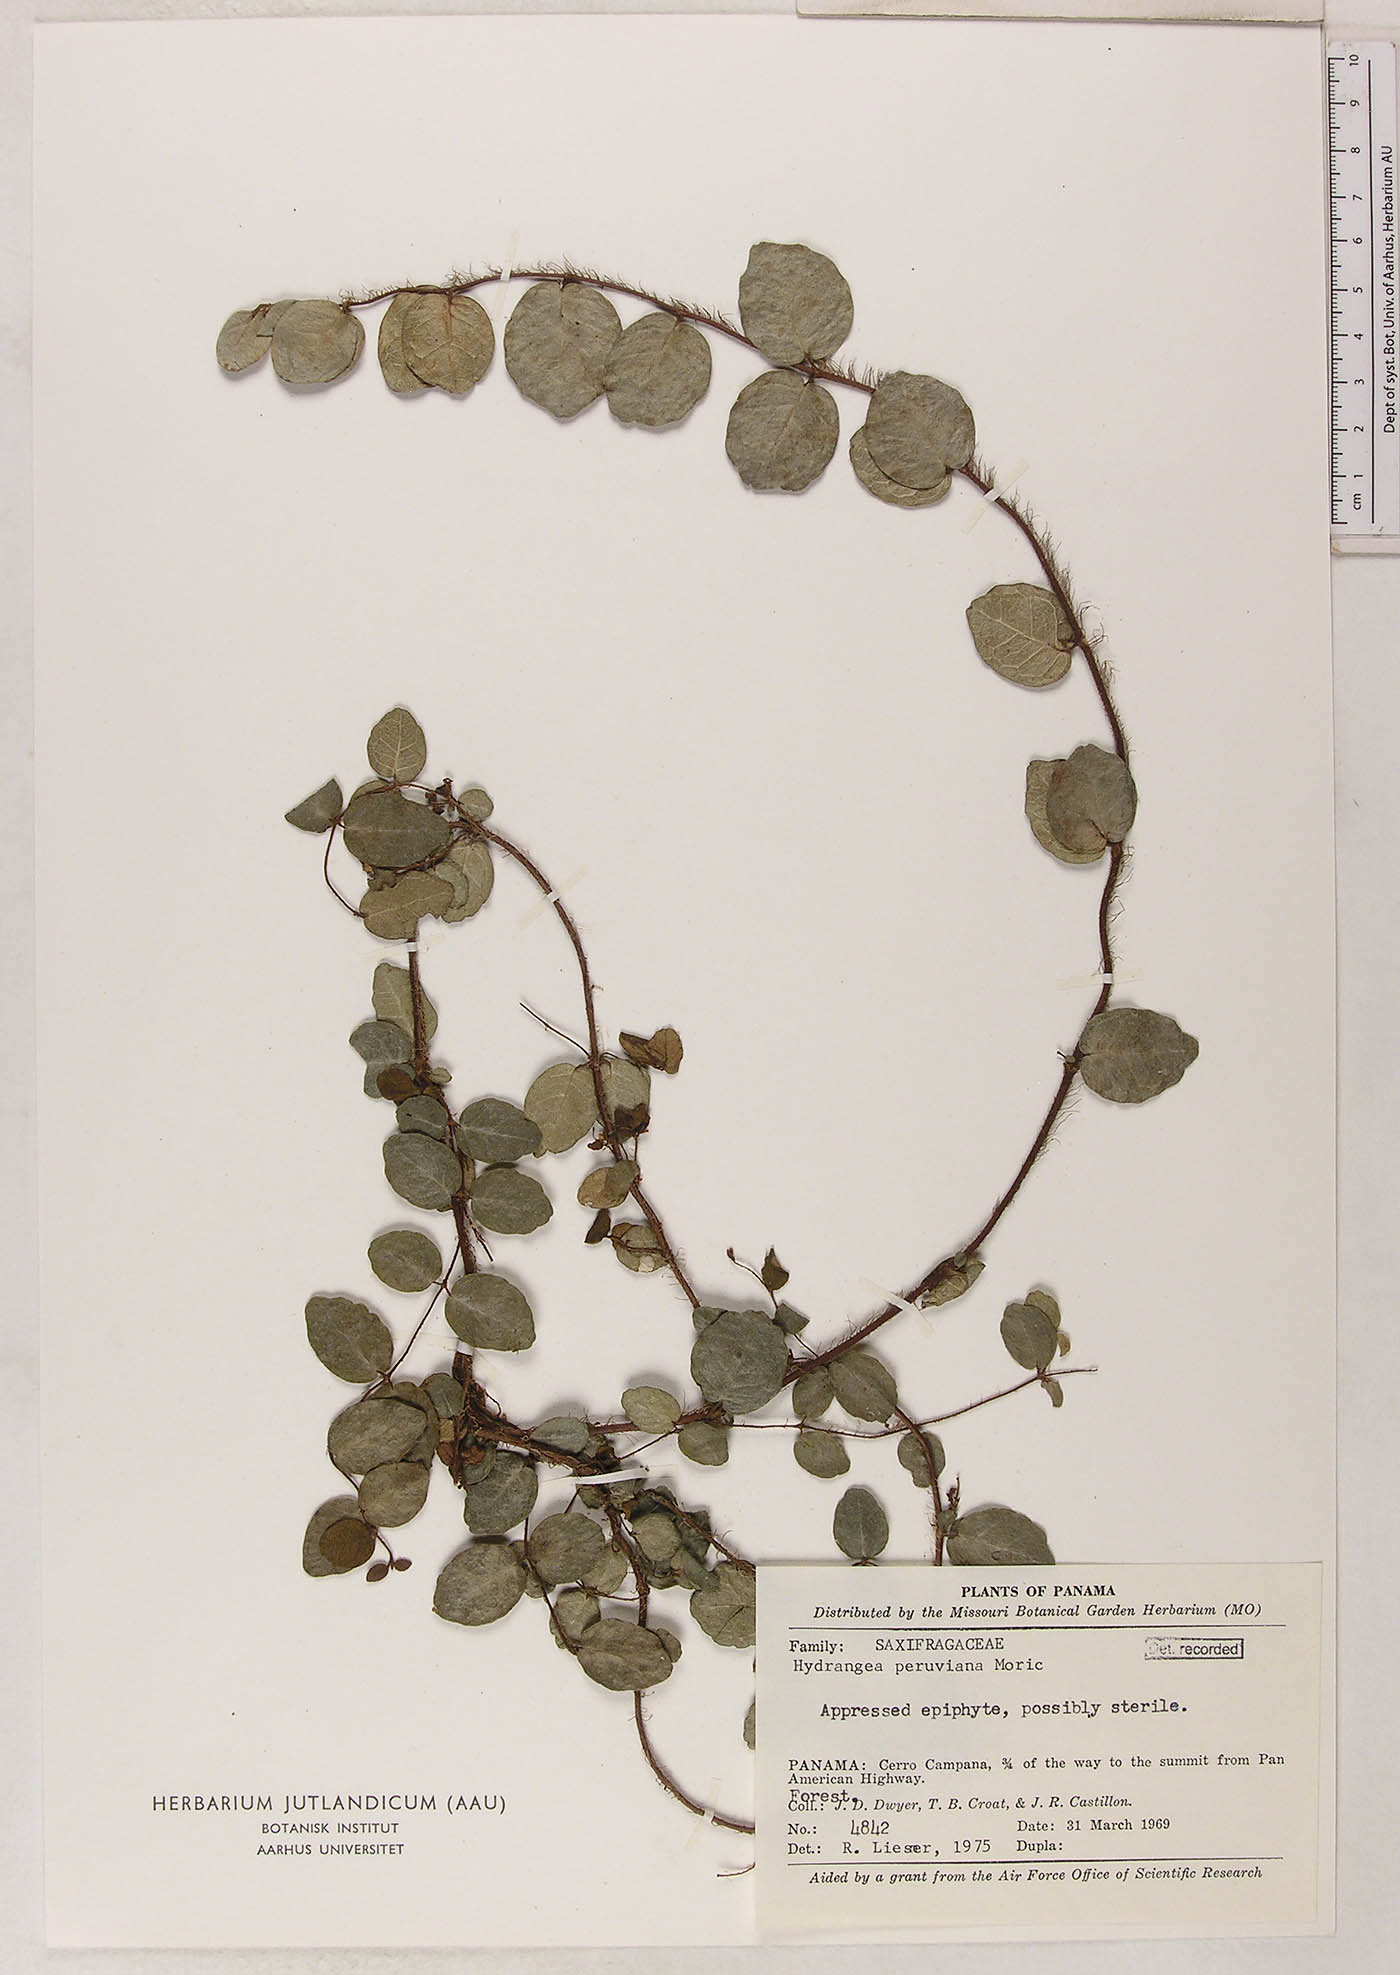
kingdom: Plantae
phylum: Tracheophyta
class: Magnoliopsida
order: Cornales
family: Hydrangeaceae
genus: Hydrangea
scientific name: Hydrangea peruviana
